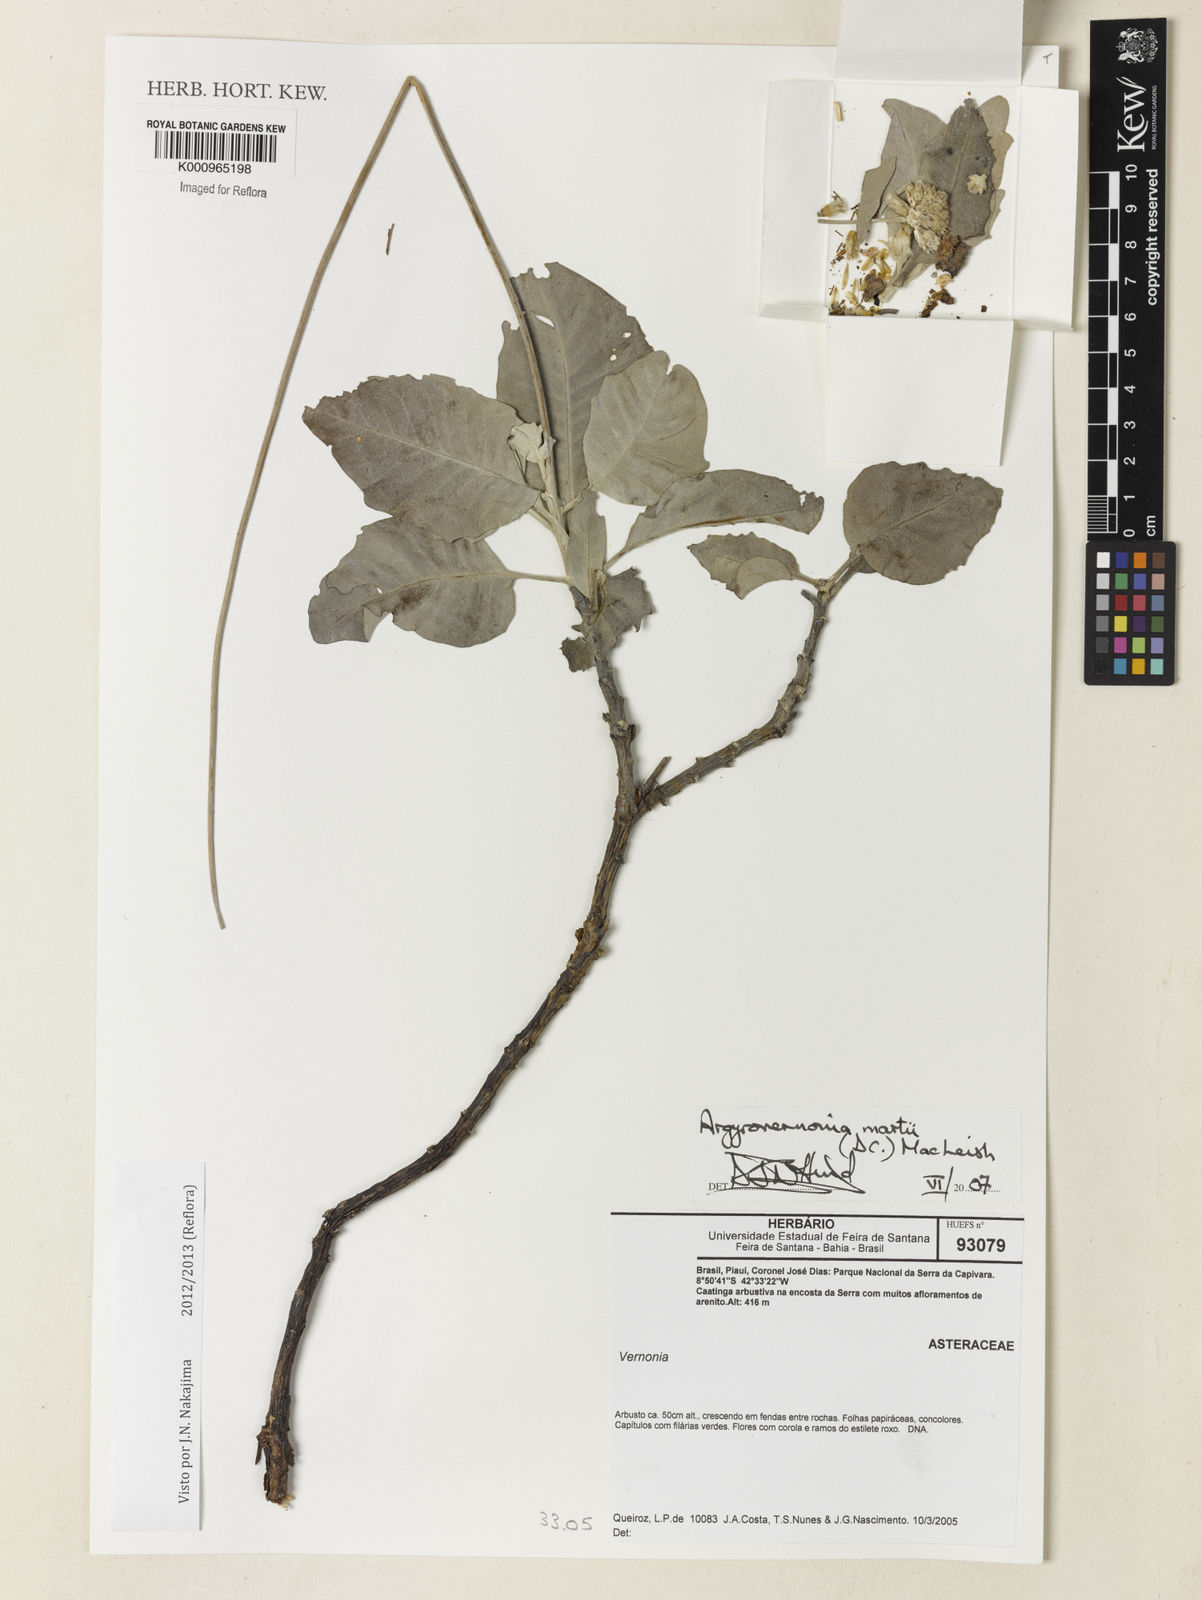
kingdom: Plantae
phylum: Tracheophyta
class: Magnoliopsida
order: Asterales
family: Asteraceae
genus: Chresta
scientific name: Chresta martii
